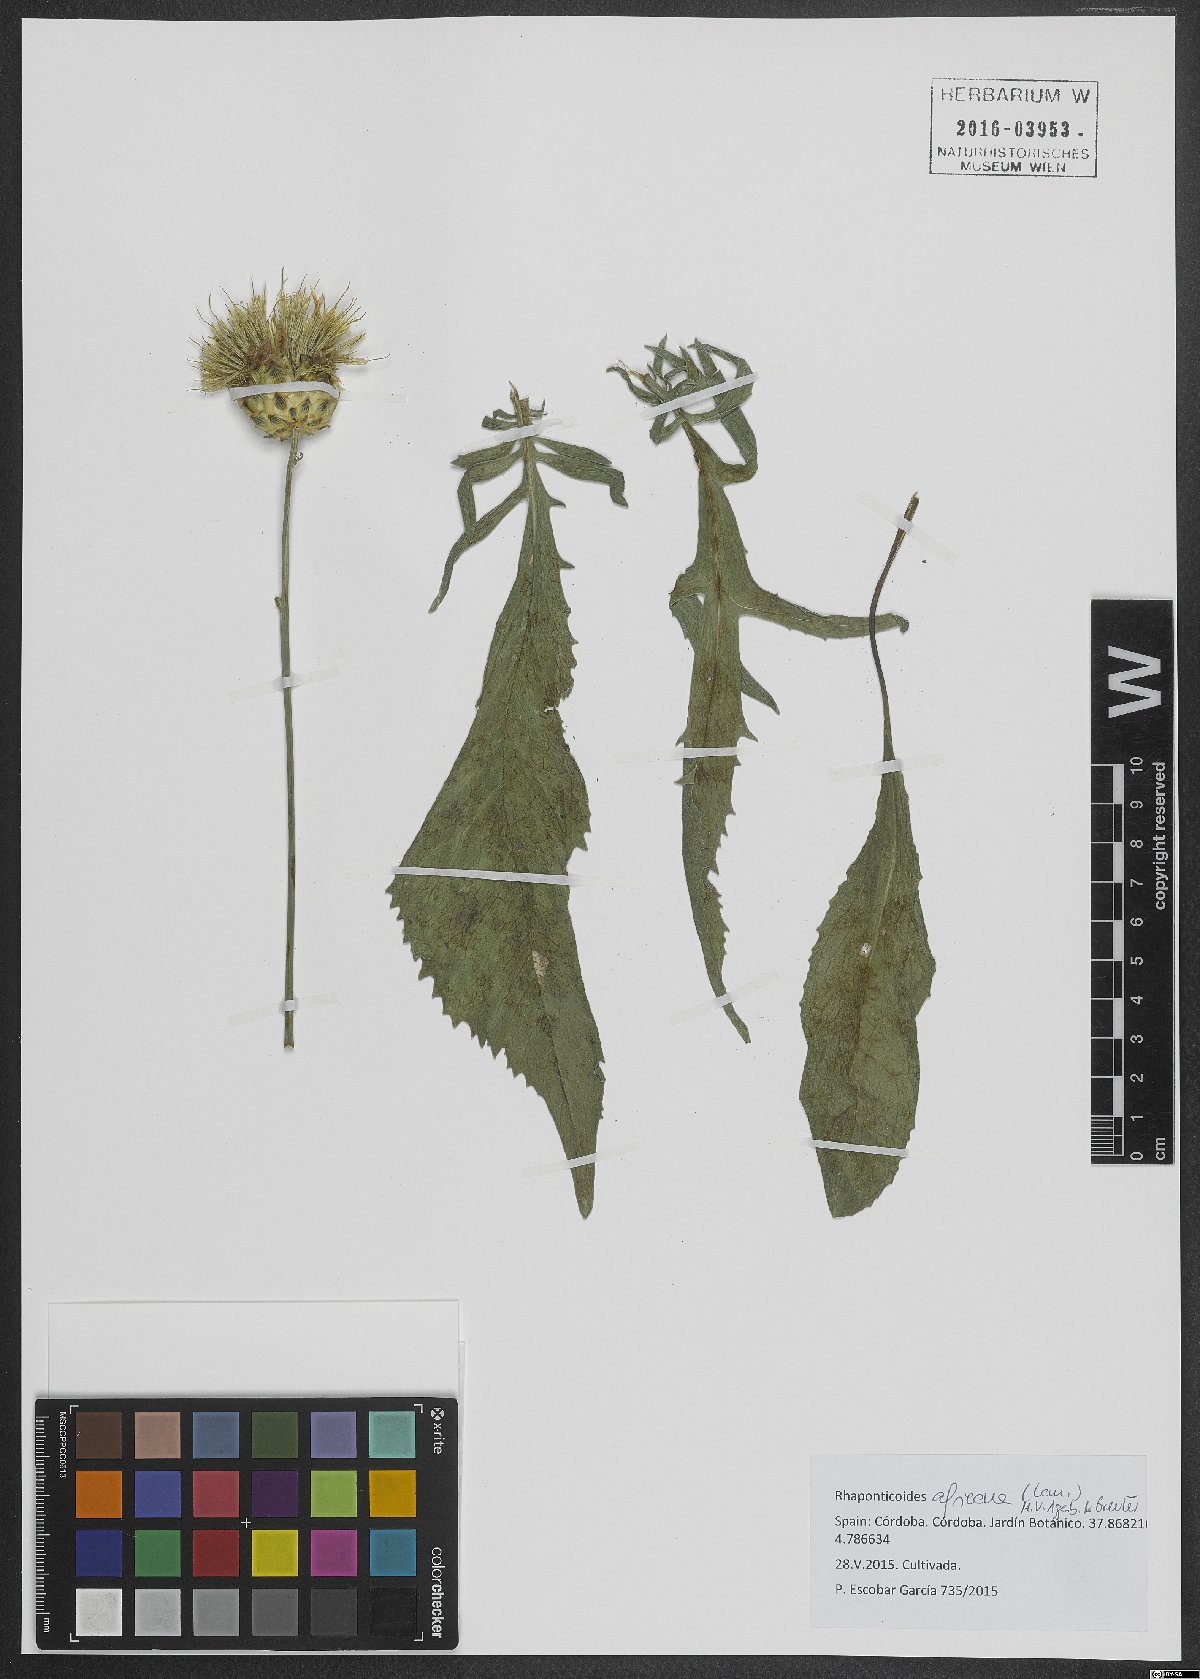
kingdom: Plantae
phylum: Tracheophyta
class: Magnoliopsida
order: Asterales
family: Asteraceae
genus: Rhaponticoides
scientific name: Rhaponticoides africana
